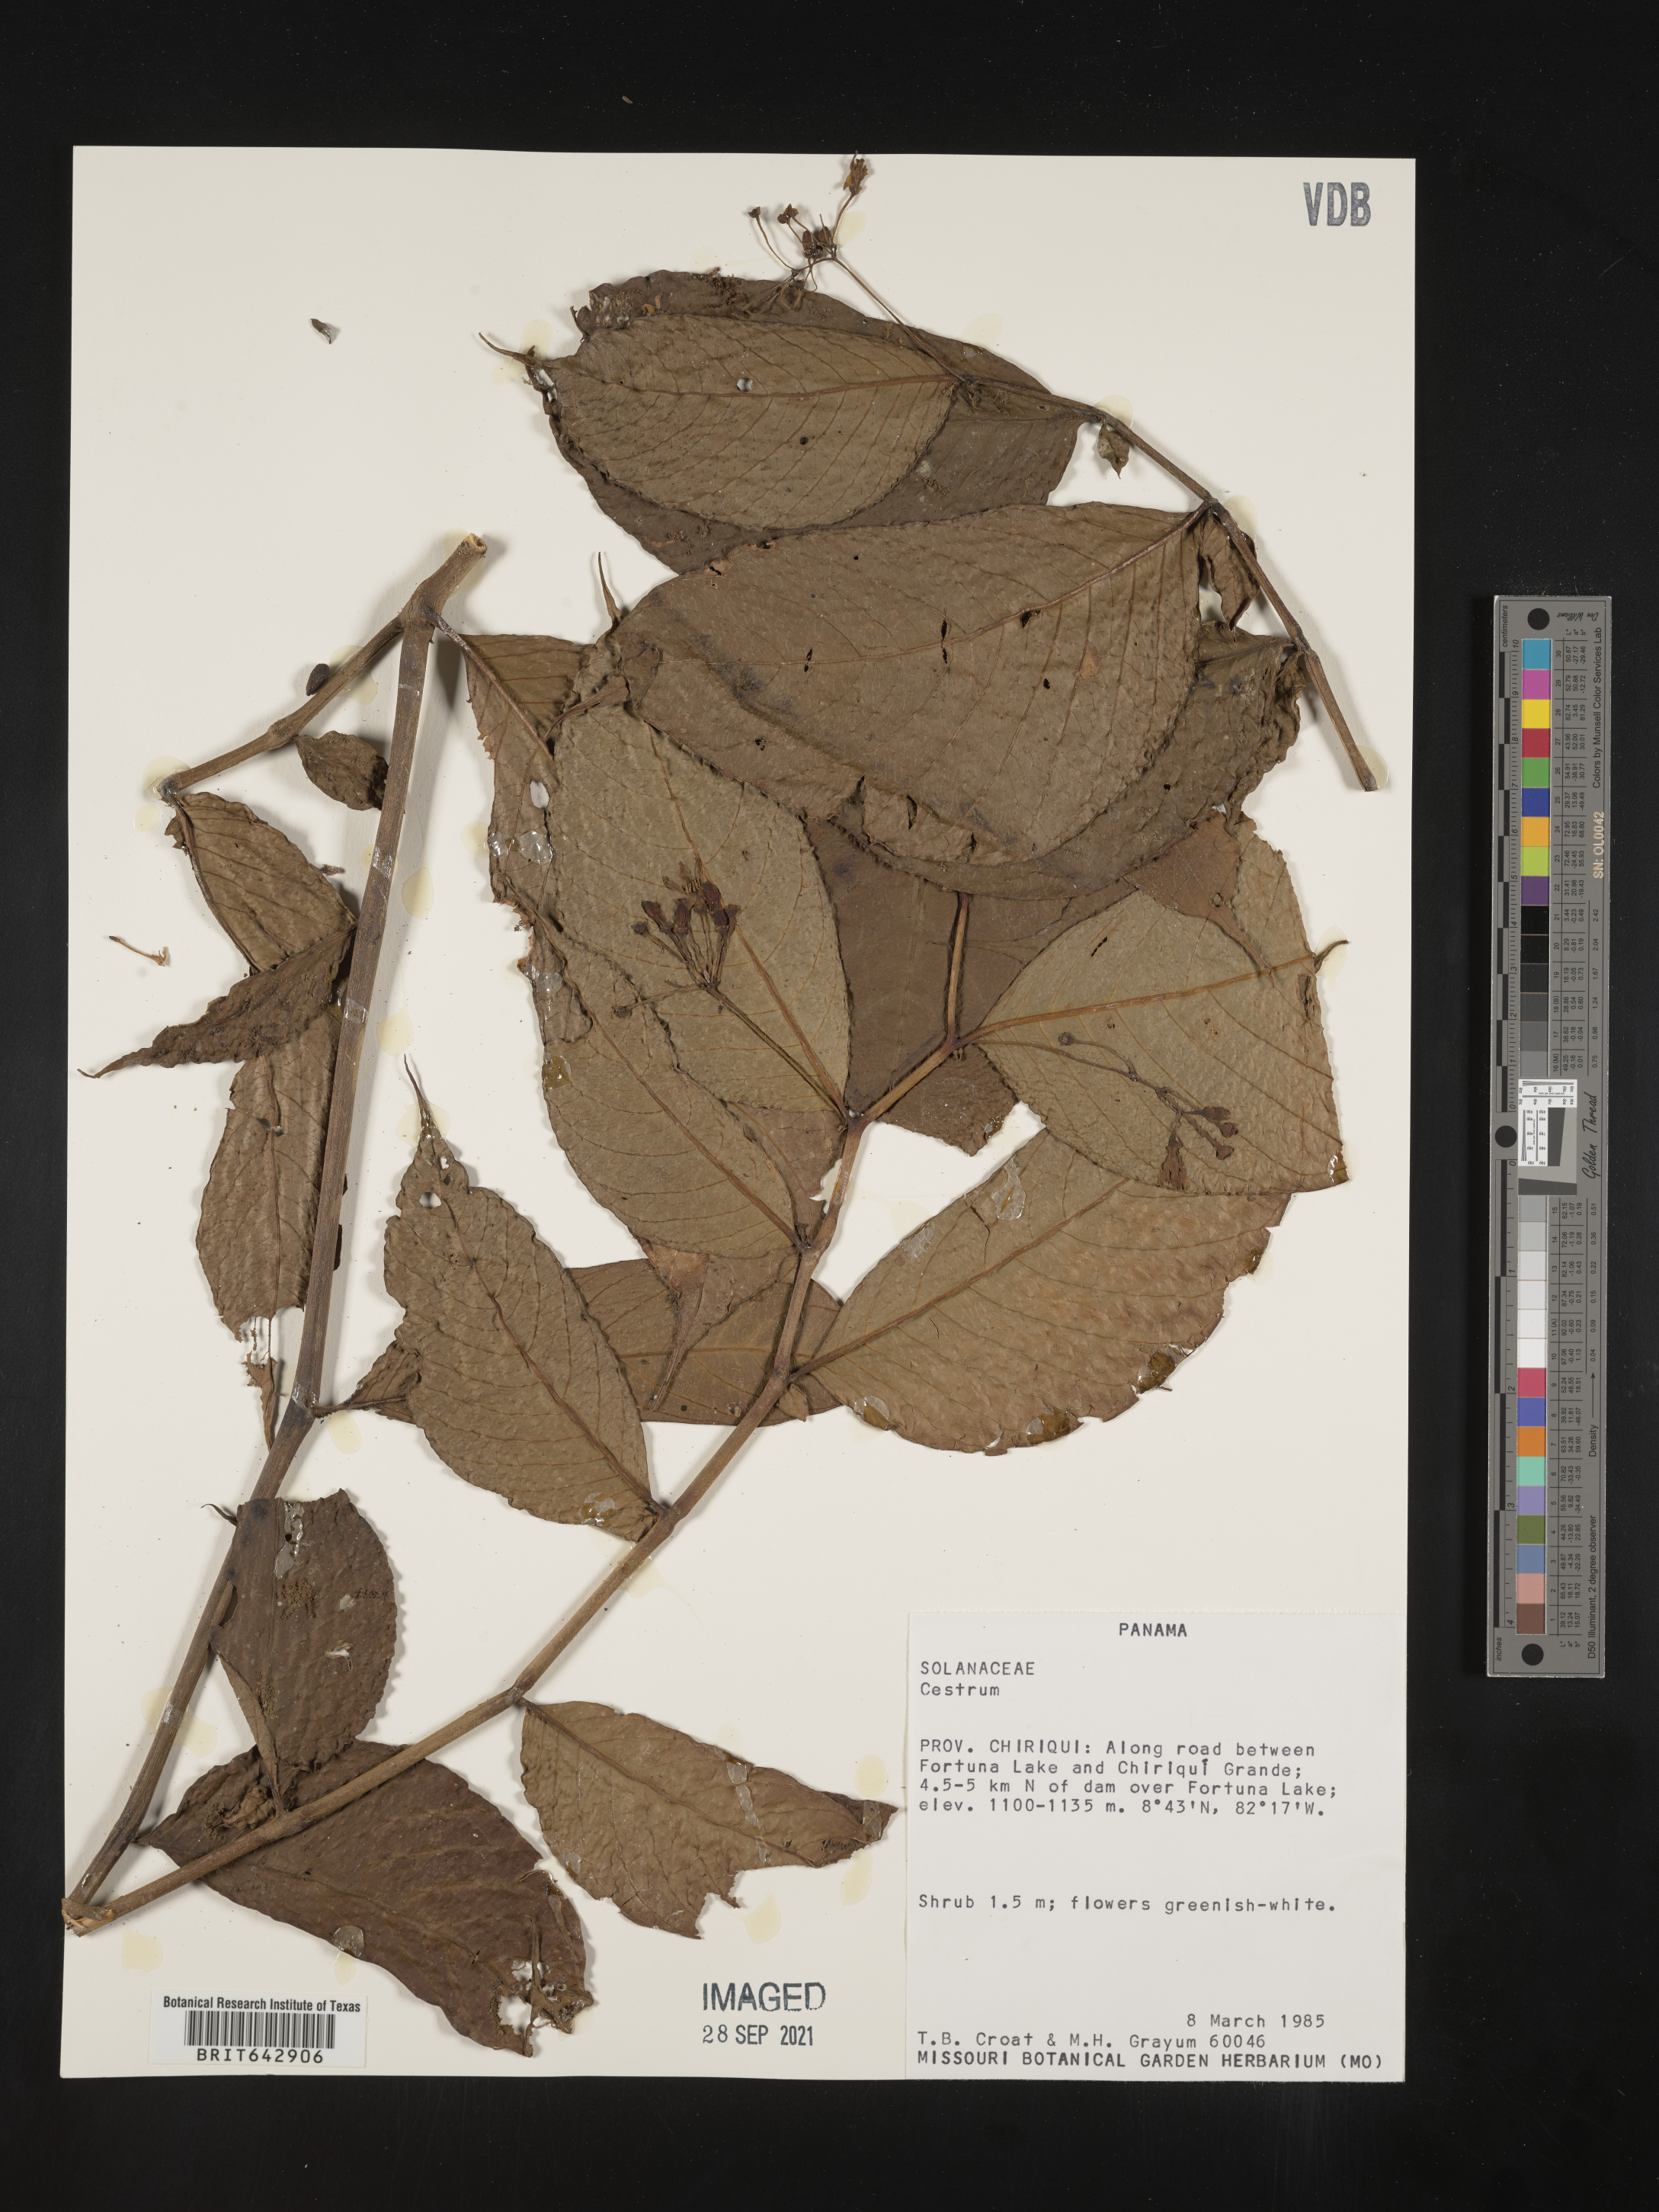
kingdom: Plantae
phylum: Tracheophyta
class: Magnoliopsida
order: Solanales
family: Solanaceae
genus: Cestrum
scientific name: Cestrum
